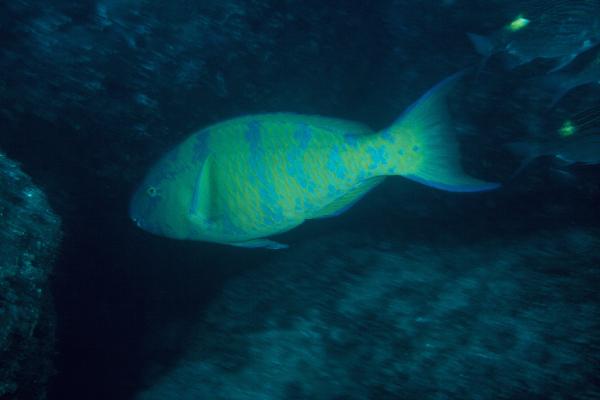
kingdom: Animalia
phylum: Chordata
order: Perciformes
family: Scaridae
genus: Scarus
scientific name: Scarus ghobban
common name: Blue-barred parrotfish
